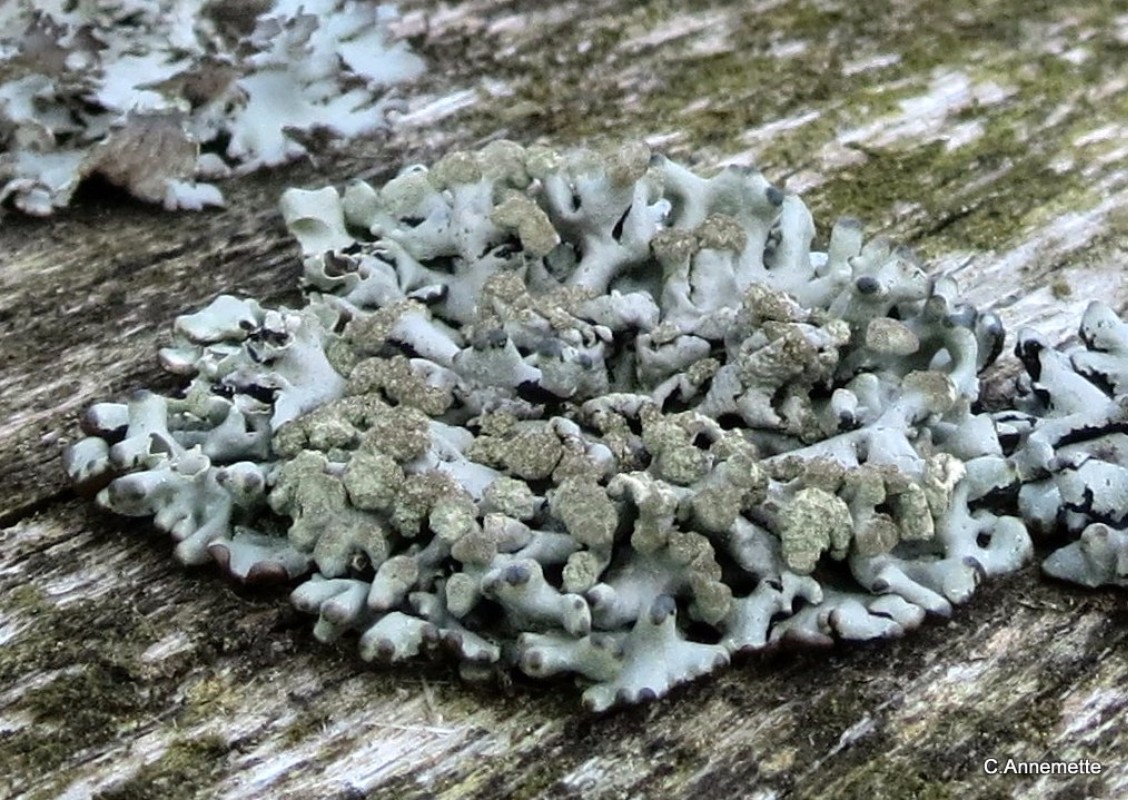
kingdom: Fungi
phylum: Ascomycota
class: Lecanoromycetes
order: Lecanorales
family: Parmeliaceae
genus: Hypogymnia
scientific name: Hypogymnia tubulosa
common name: finger-kvistlav
